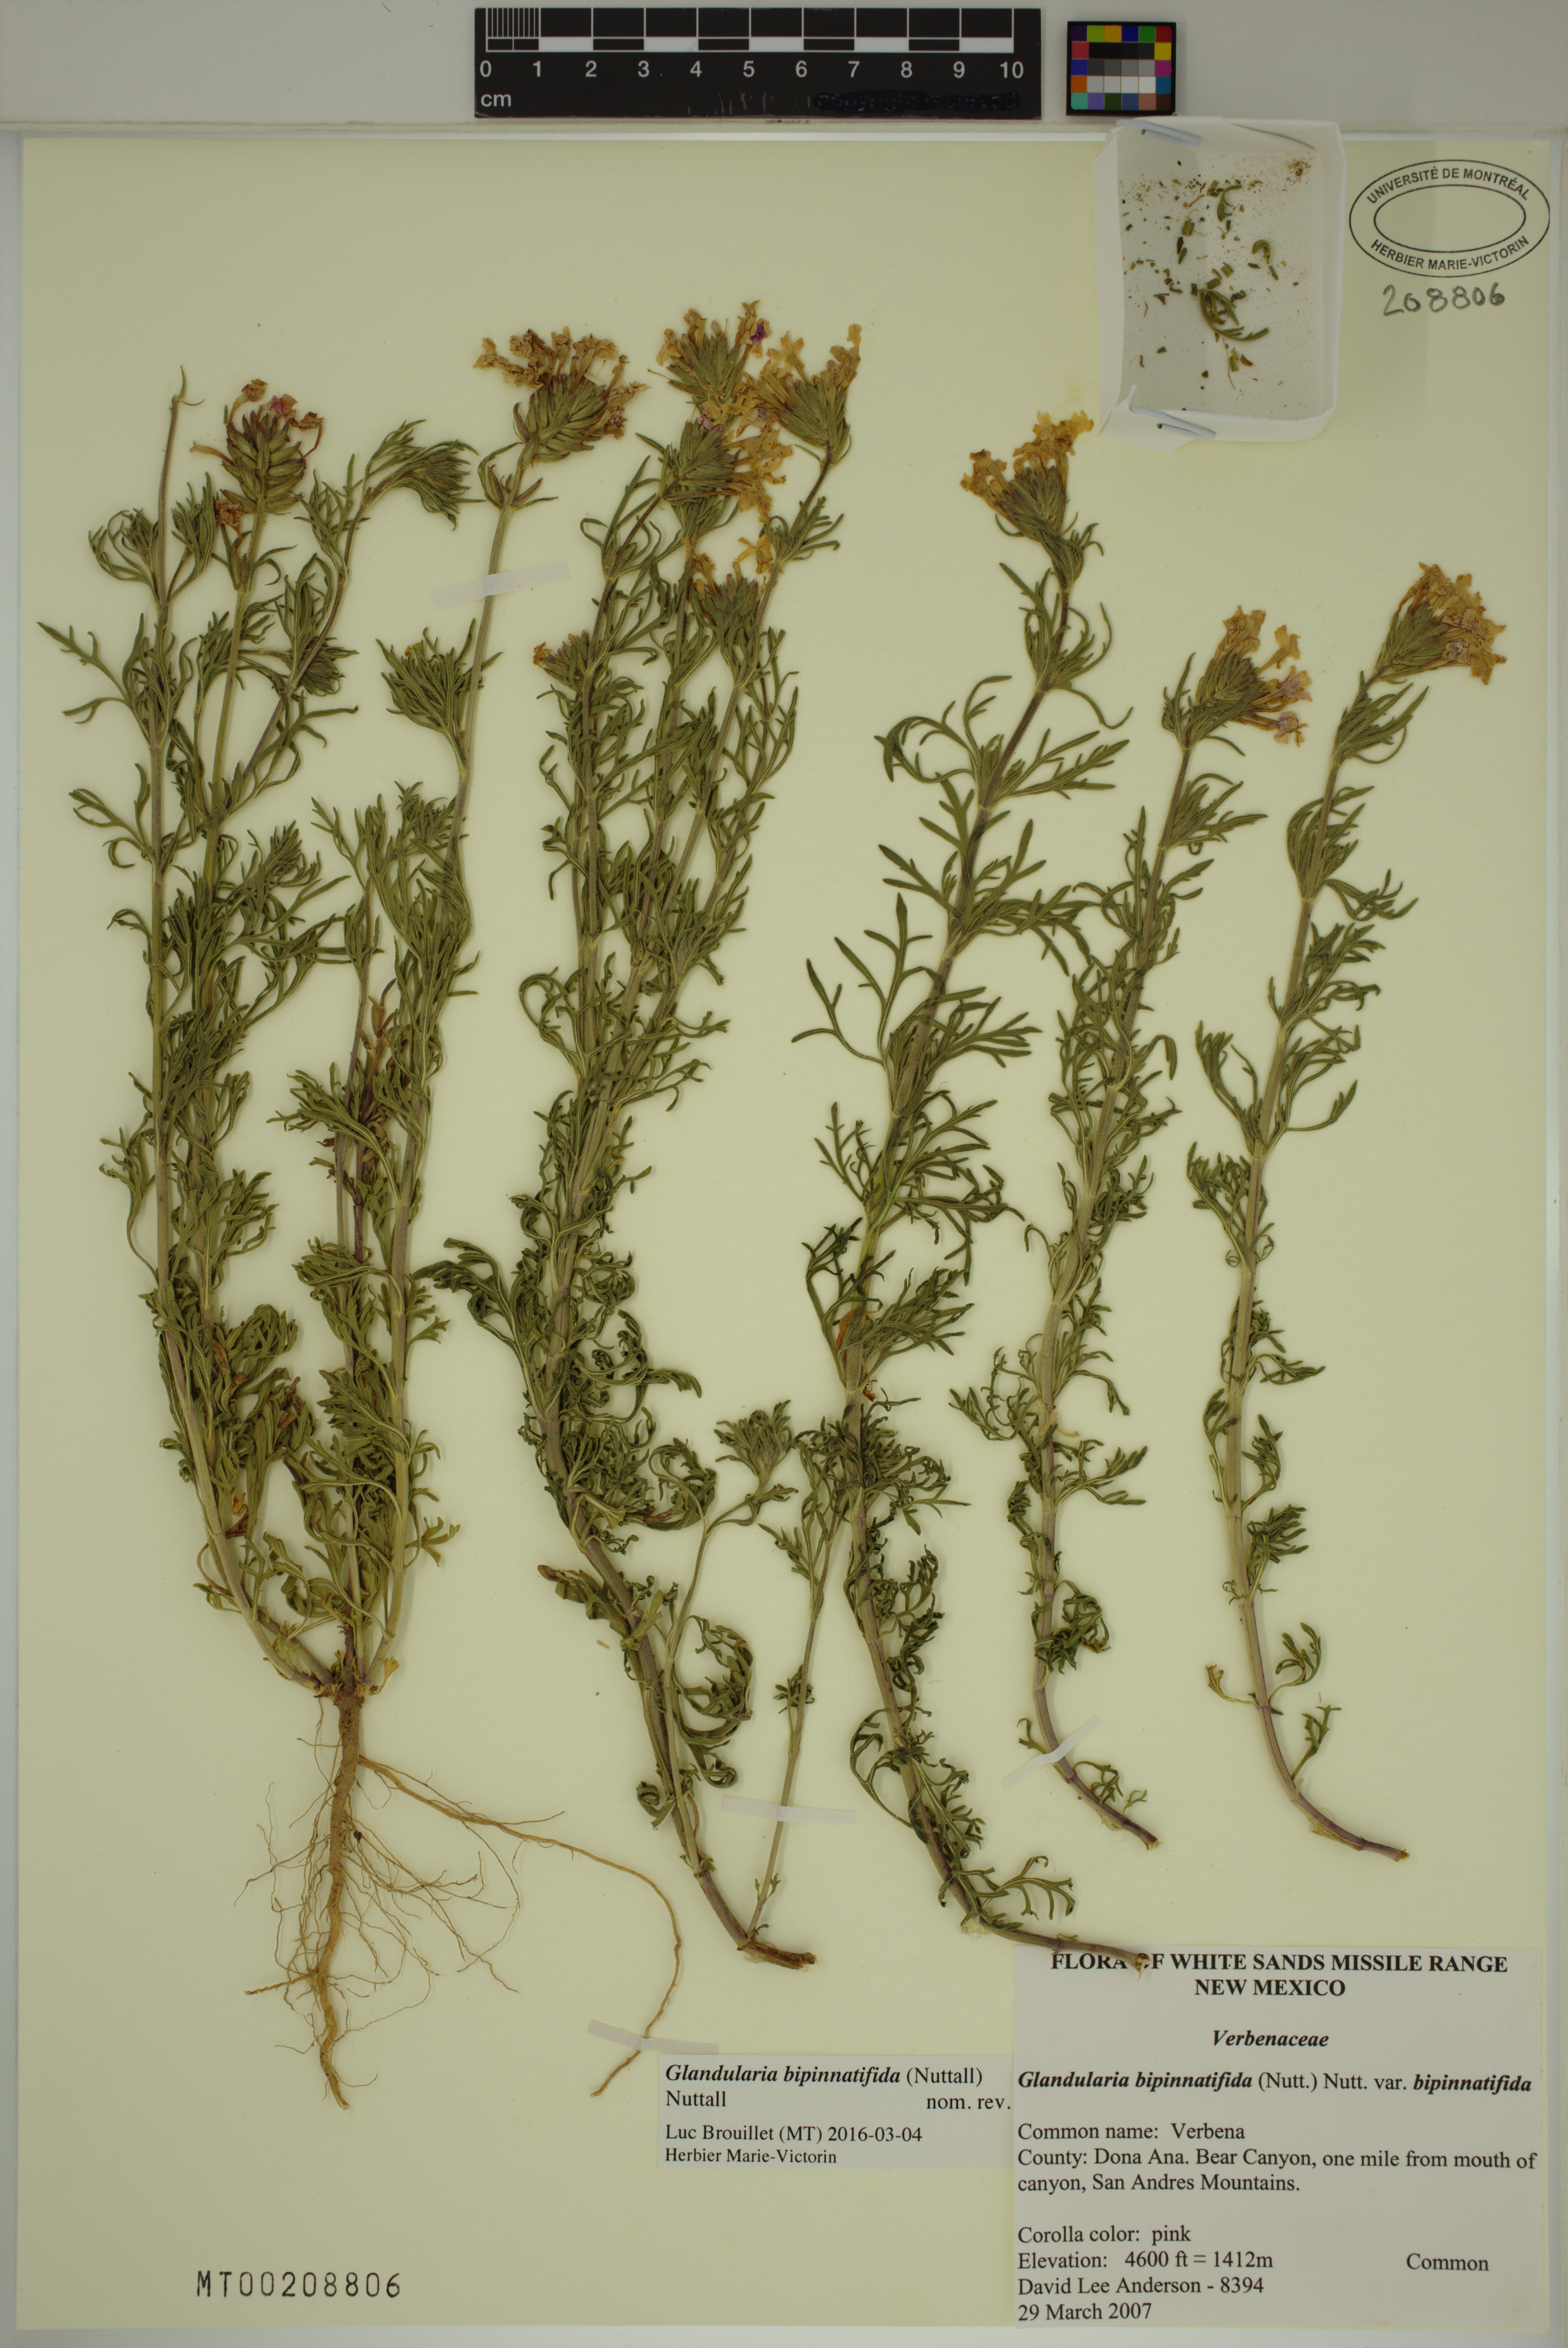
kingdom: Plantae
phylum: Tracheophyta
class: Magnoliopsida
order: Lamiales
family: Verbenaceae
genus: Verbena
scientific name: Verbena bipinnatifida
